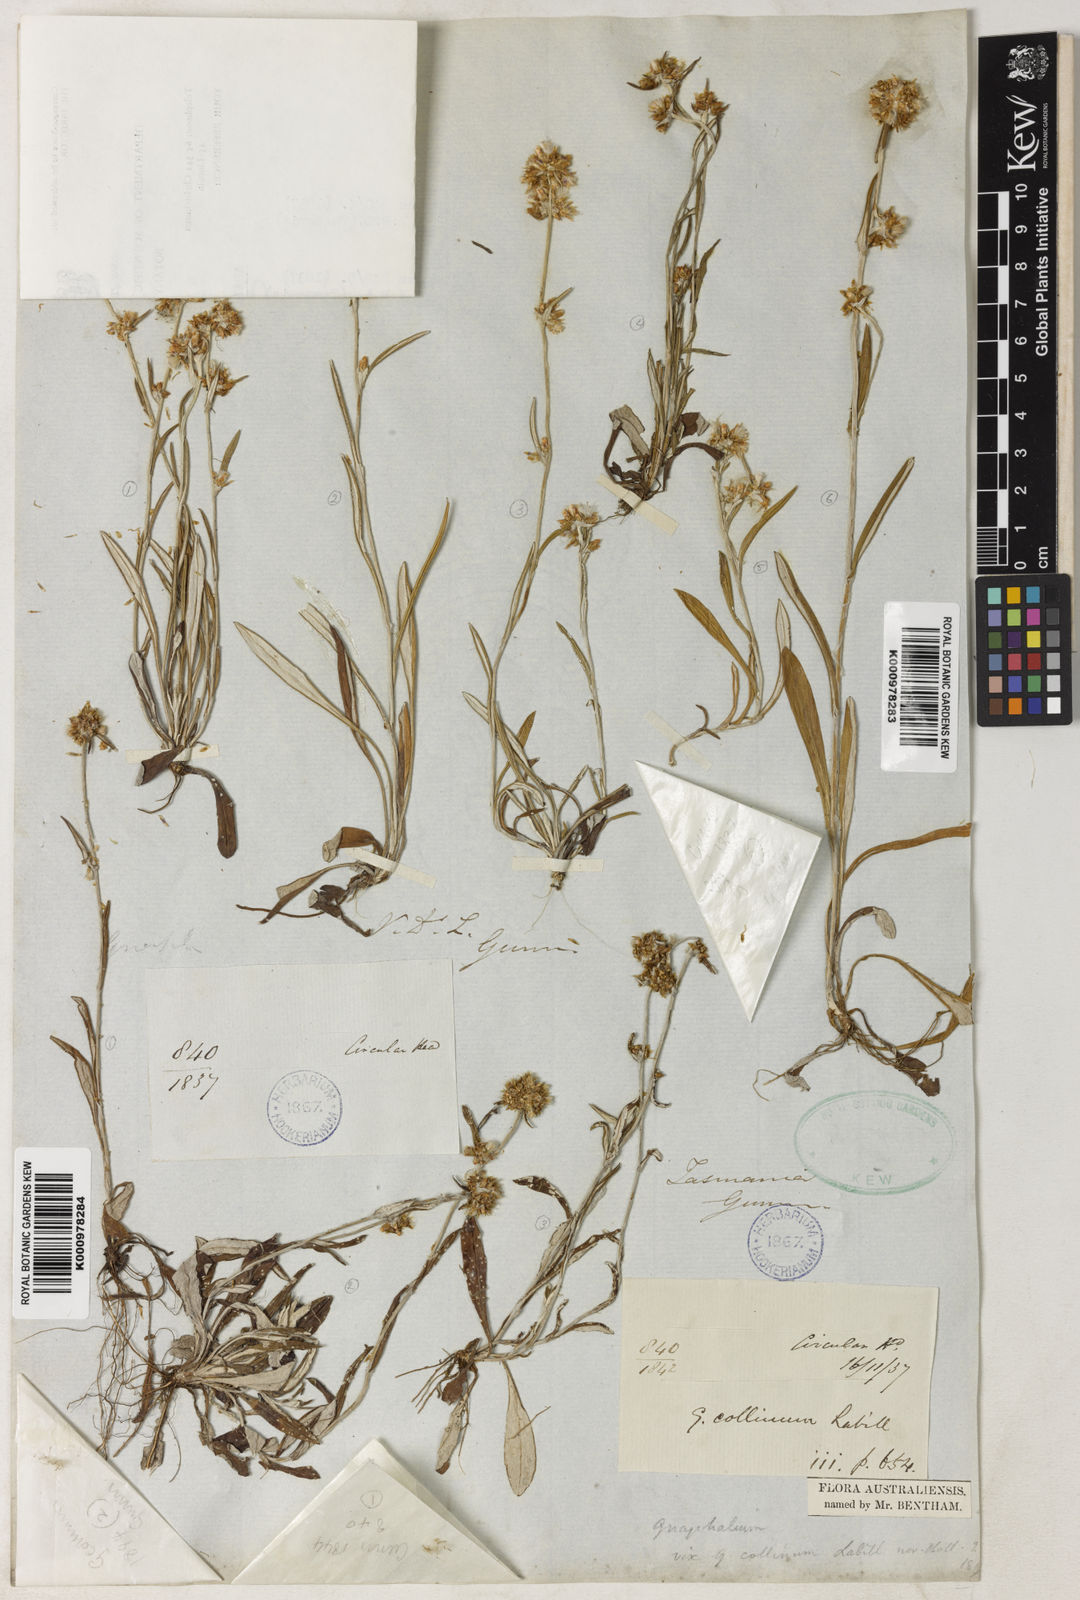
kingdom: Plantae
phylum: Tracheophyta
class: Magnoliopsida
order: Asterales
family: Asteraceae
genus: Euchiton
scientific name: Euchiton gymnocephalus
